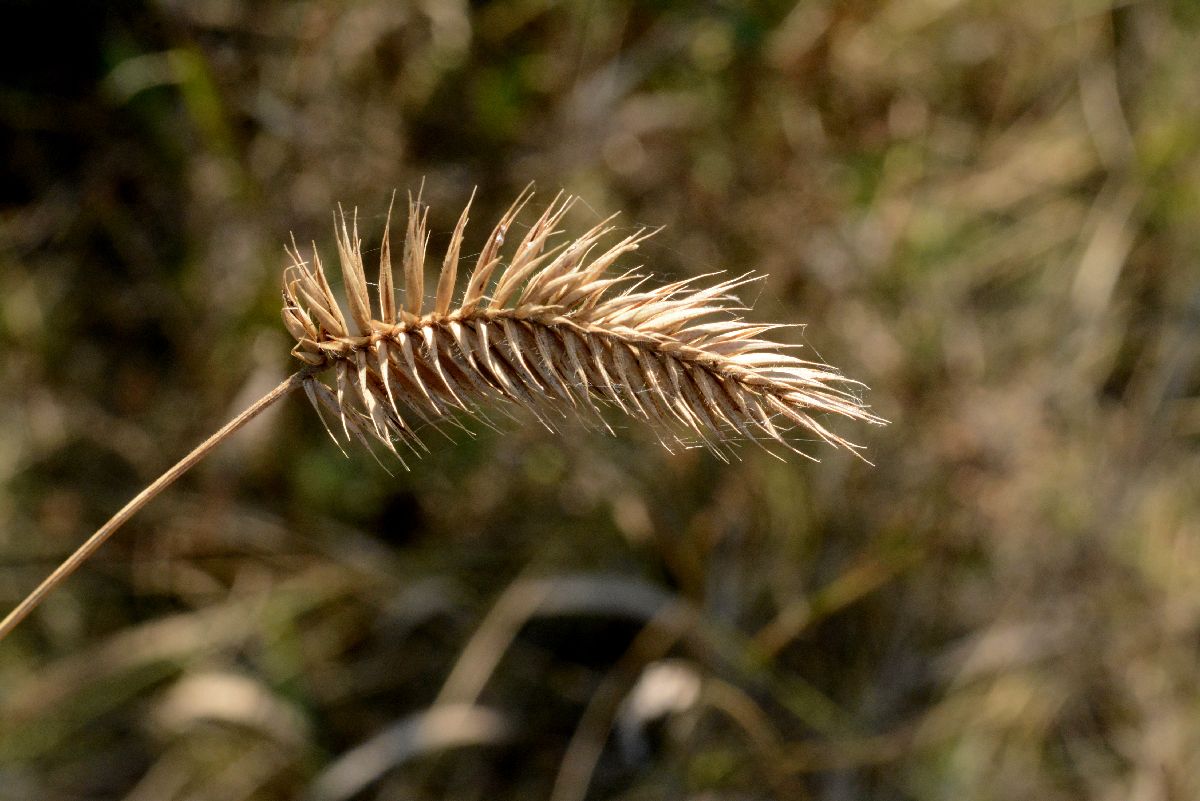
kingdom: Plantae
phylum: Tracheophyta
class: Liliopsida
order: Poales
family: Poaceae
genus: Agropyron
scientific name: Agropyron cristatum
